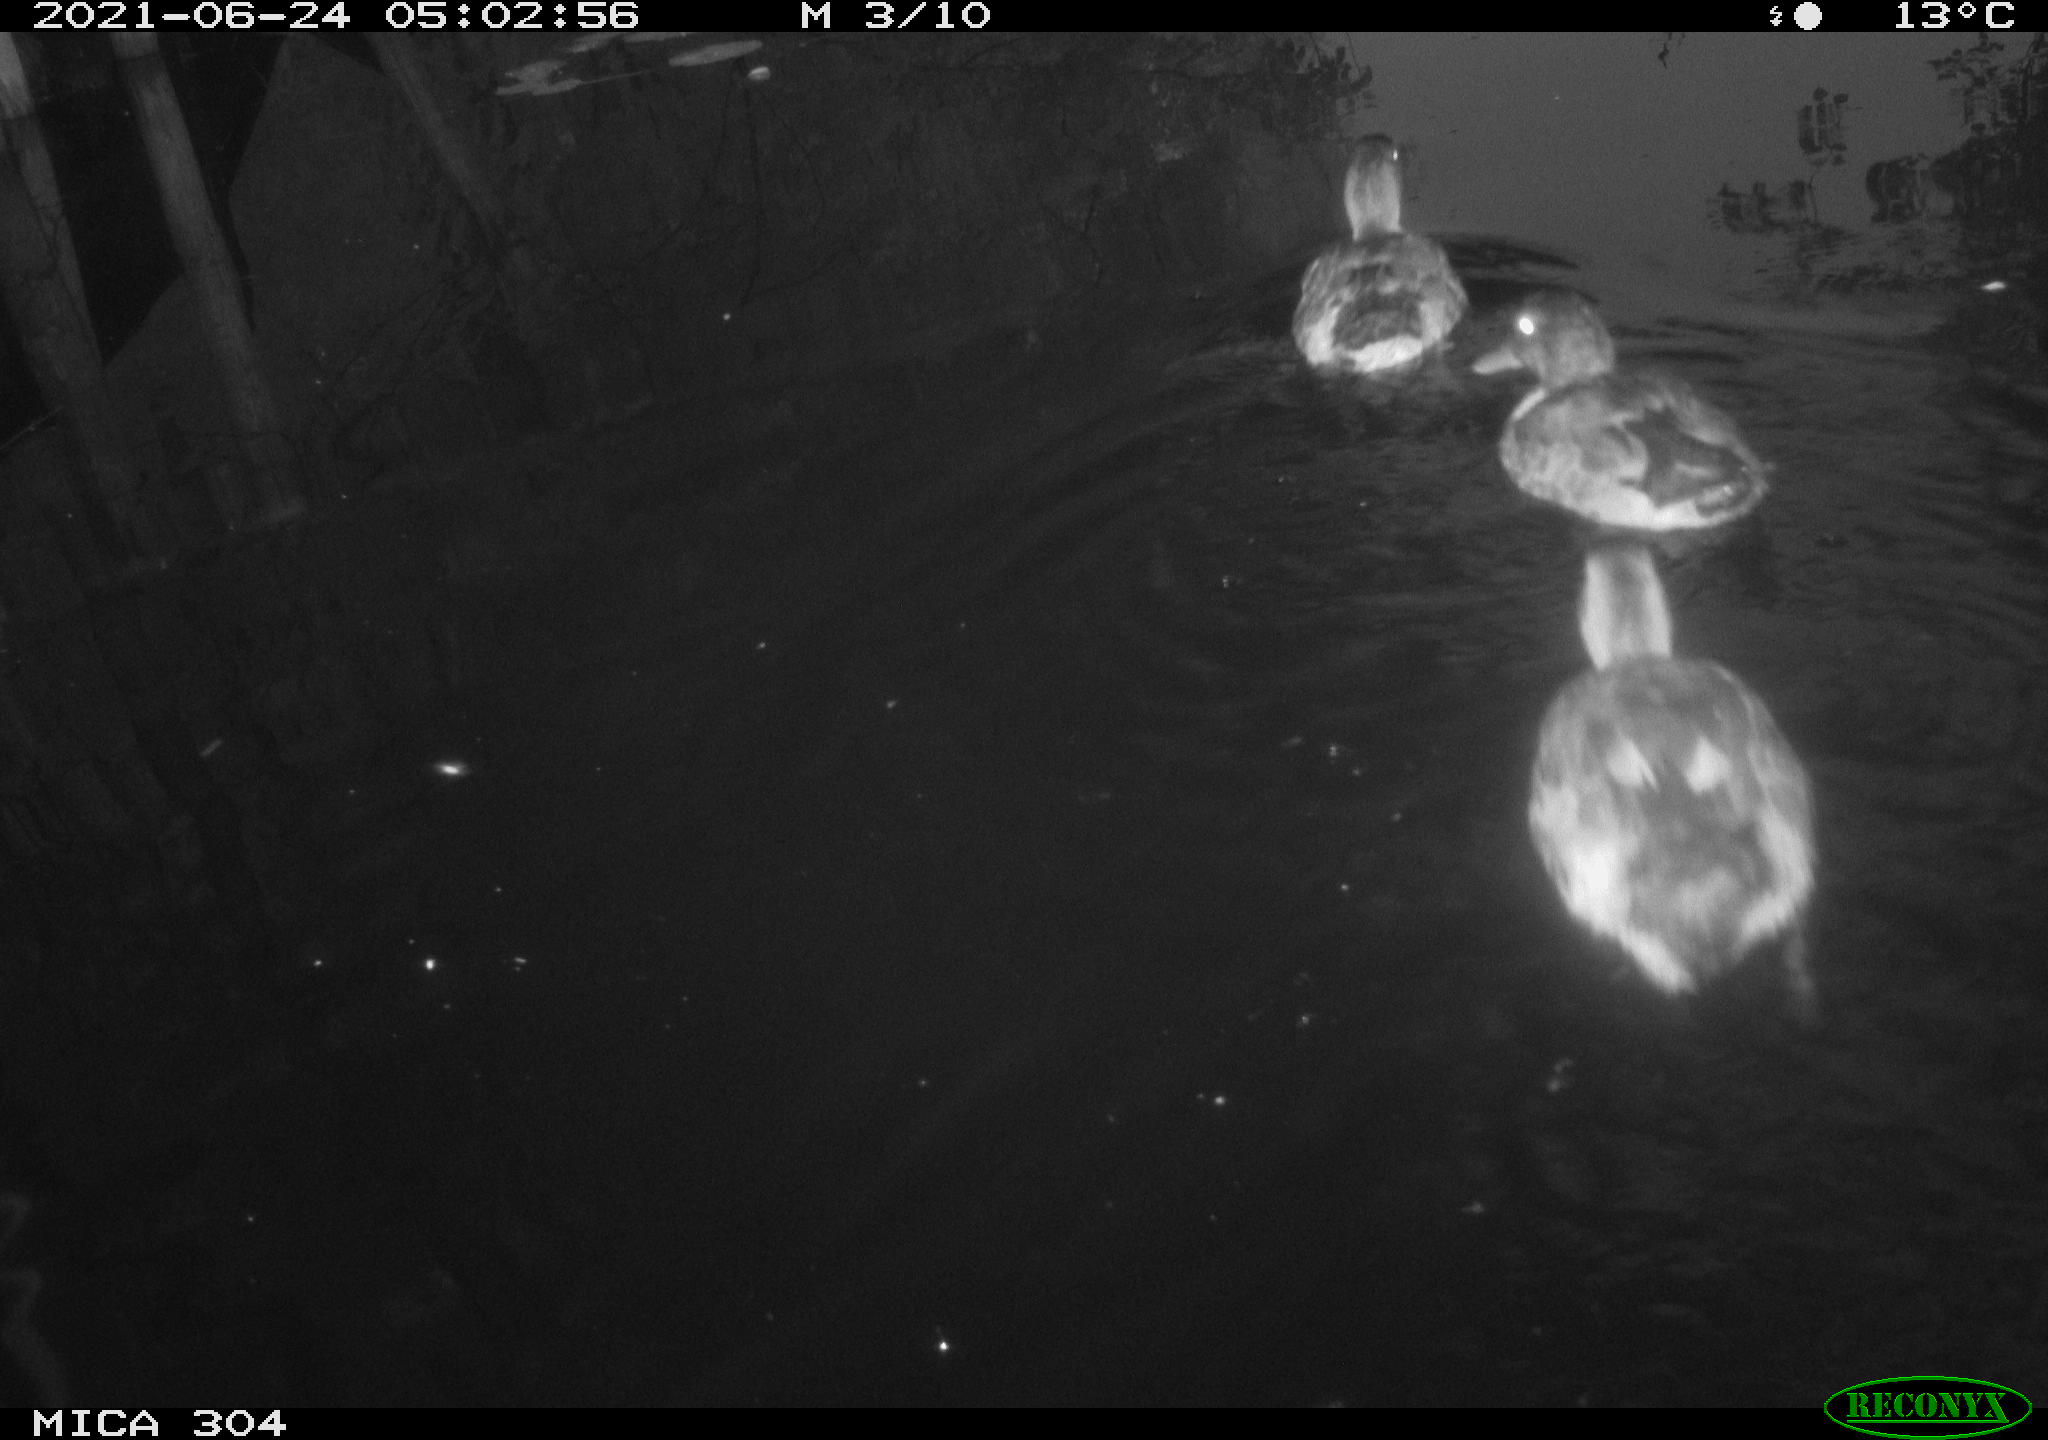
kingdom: Animalia
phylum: Chordata
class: Aves
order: Anseriformes
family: Anatidae
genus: Anas
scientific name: Anas platyrhynchos
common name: Mallard
